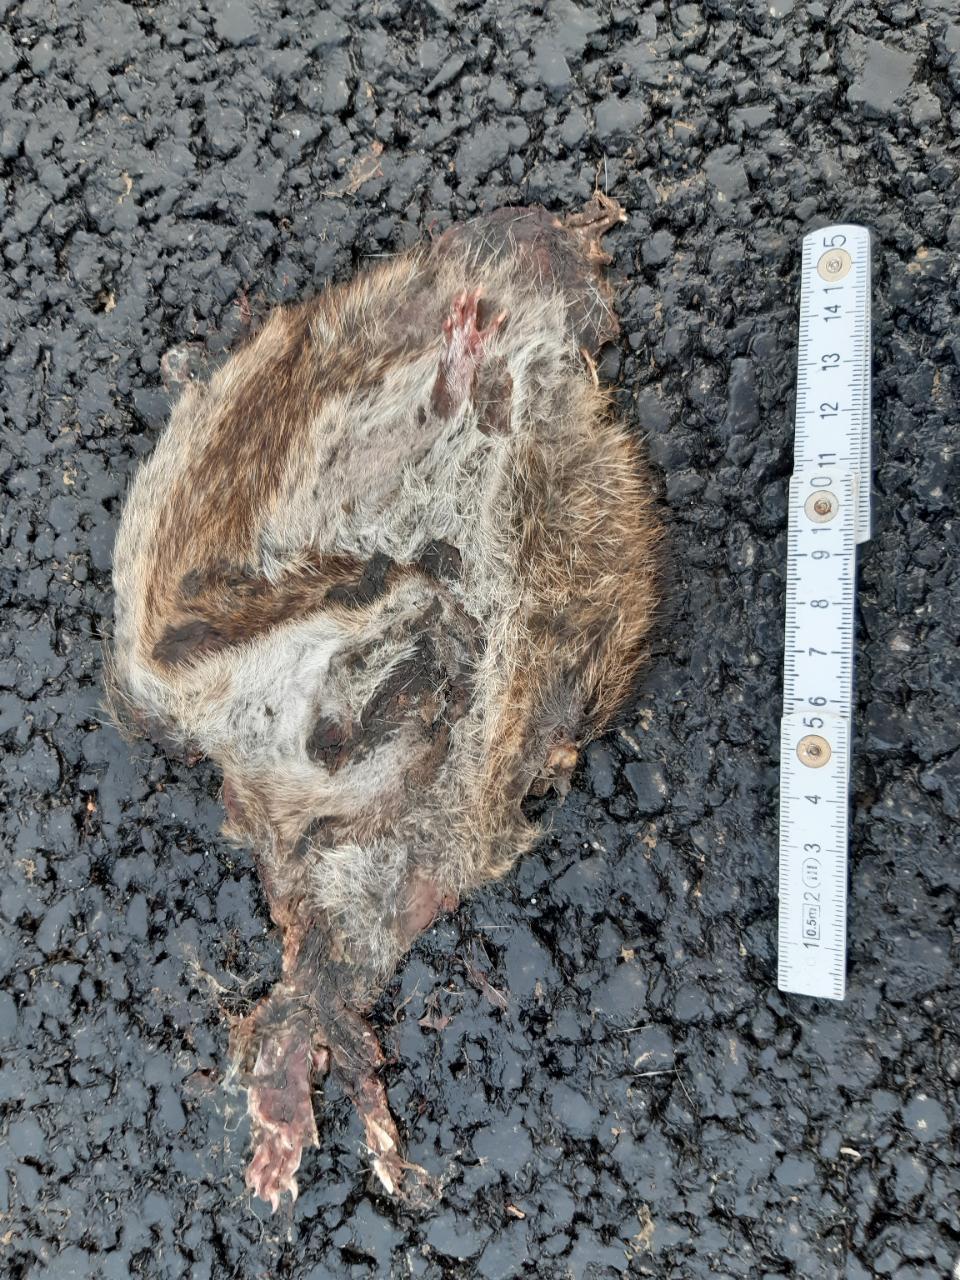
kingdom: Animalia
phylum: Chordata
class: Mammalia
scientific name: Mammalia
